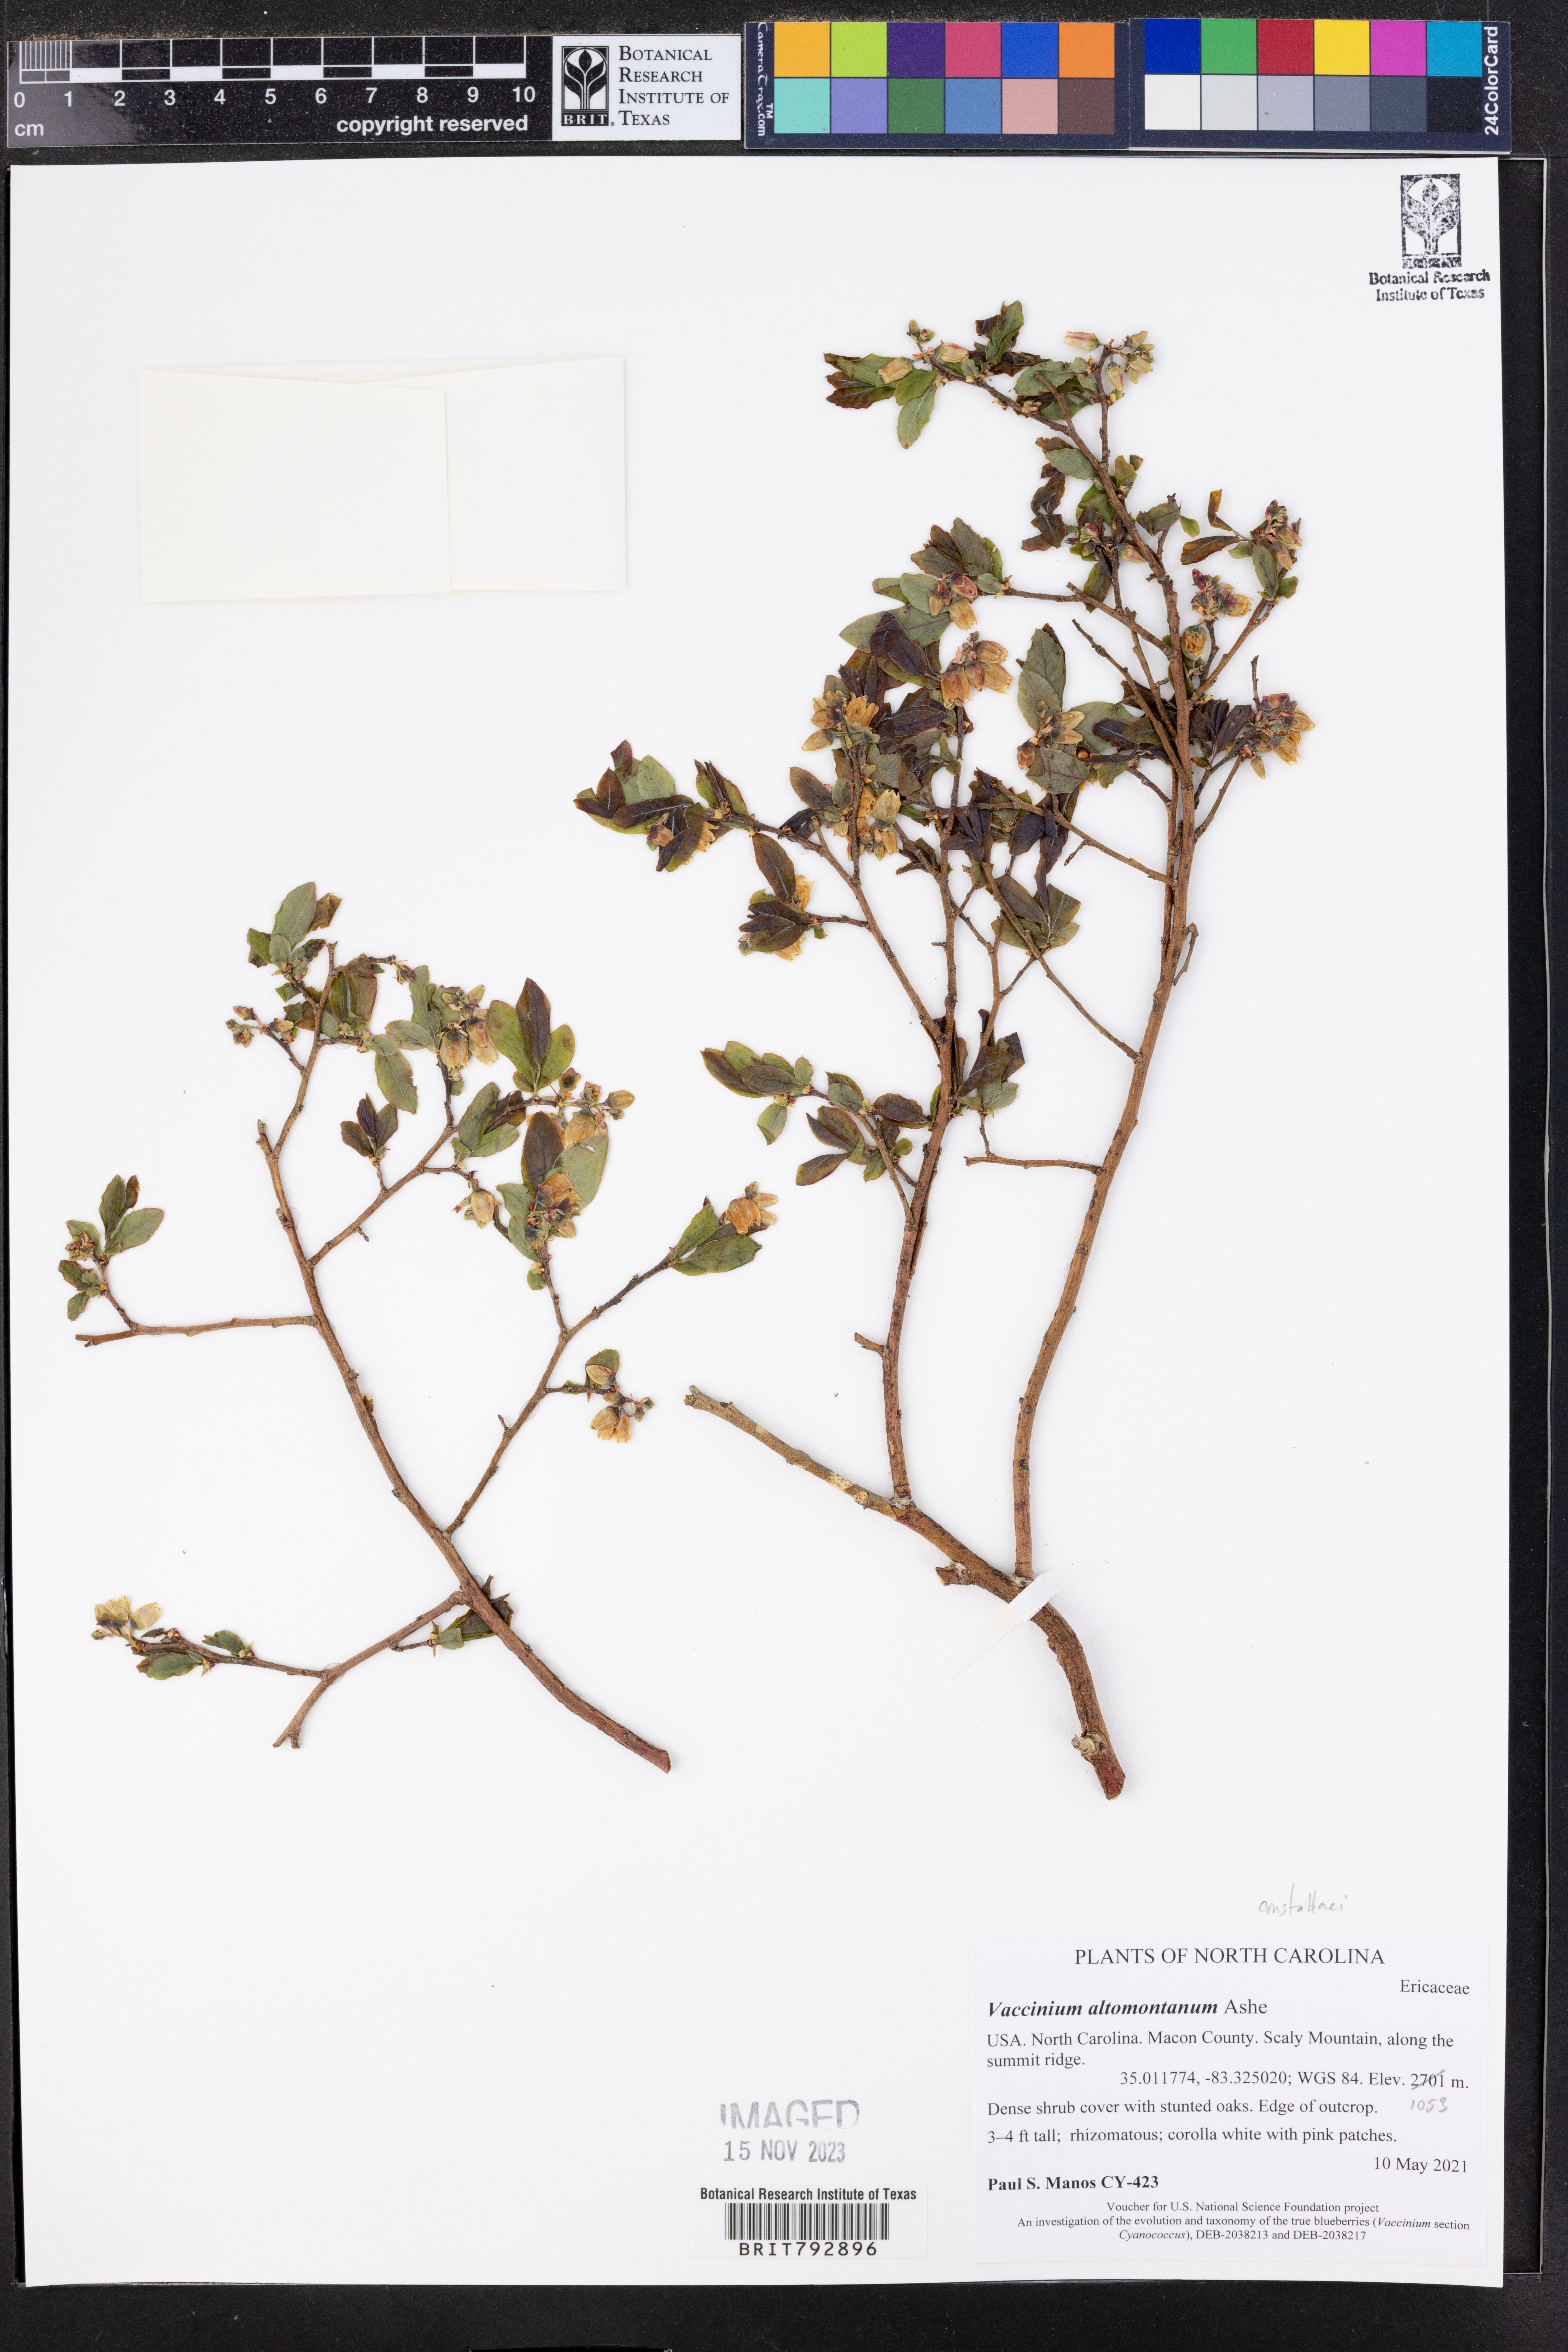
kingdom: Plantae
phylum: Tracheophyta
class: Magnoliopsida
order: Ericales
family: Ericaceae
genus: Vaccinium
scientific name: Vaccinium pallidum
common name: Blue ridge blueberry
